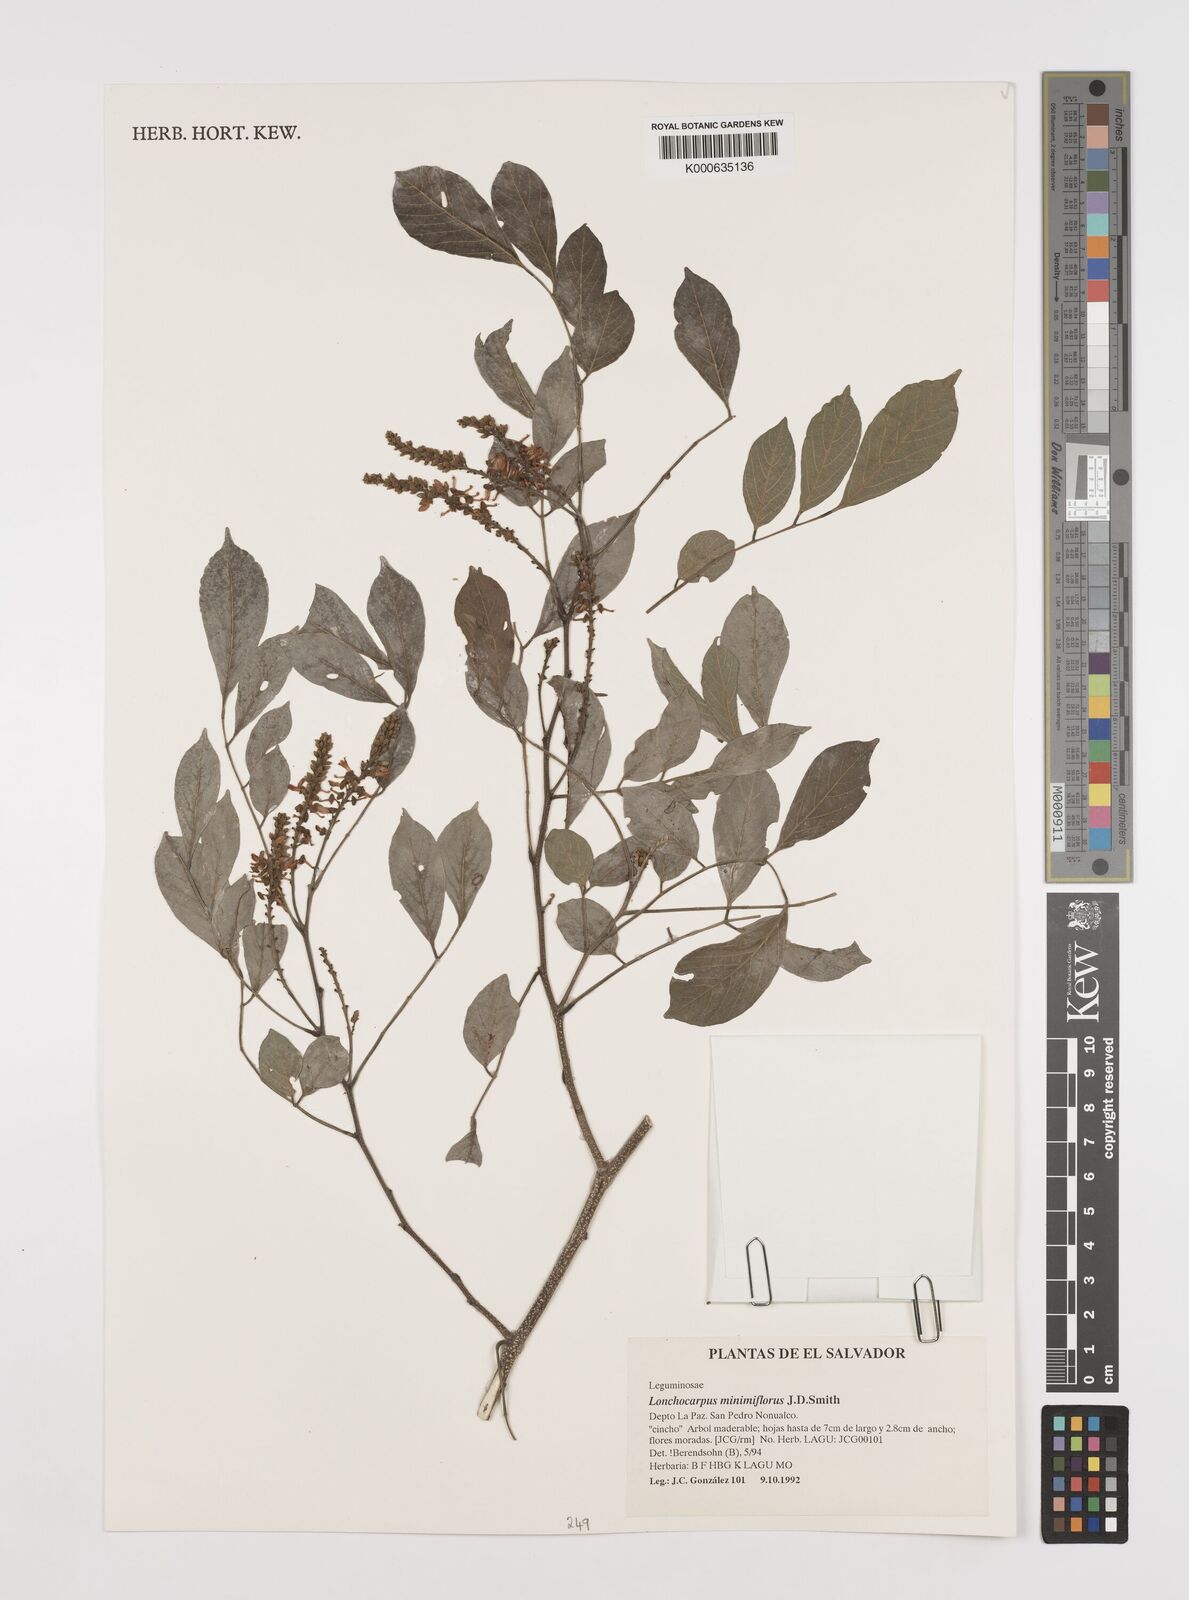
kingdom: Plantae
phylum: Tracheophyta
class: Magnoliopsida
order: Fabales
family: Fabaceae
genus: Lonchocarpus
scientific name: Lonchocarpus
